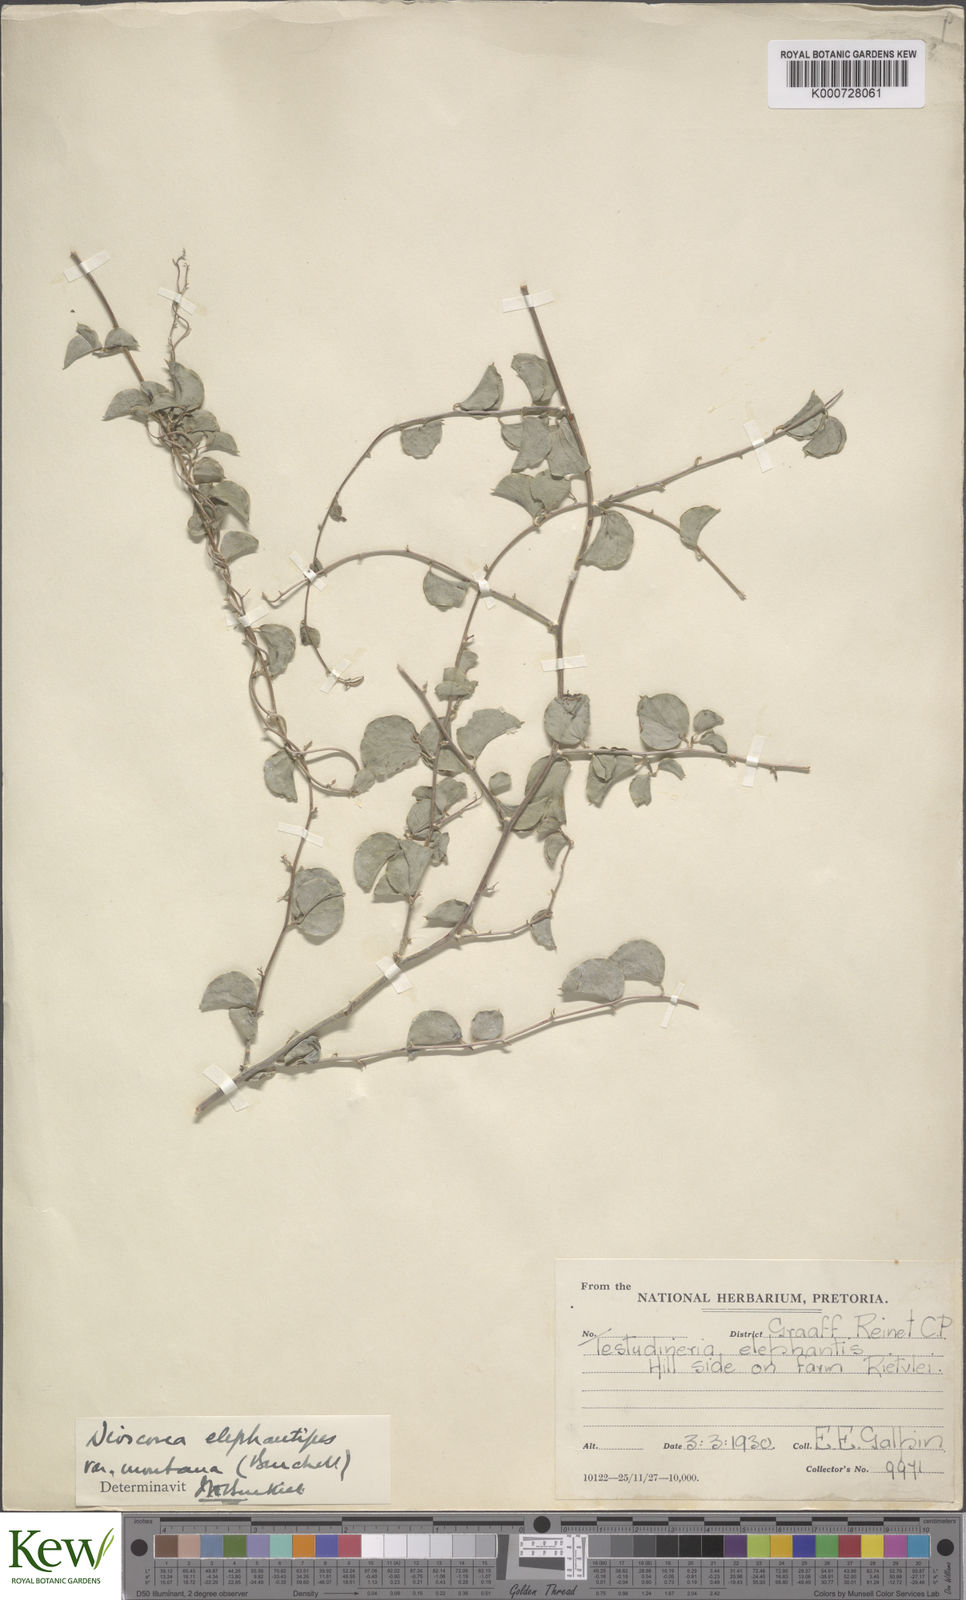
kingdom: Plantae
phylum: Tracheophyta
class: Liliopsida
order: Dioscoreales
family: Dioscoreaceae
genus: Dioscorea
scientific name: Dioscorea
